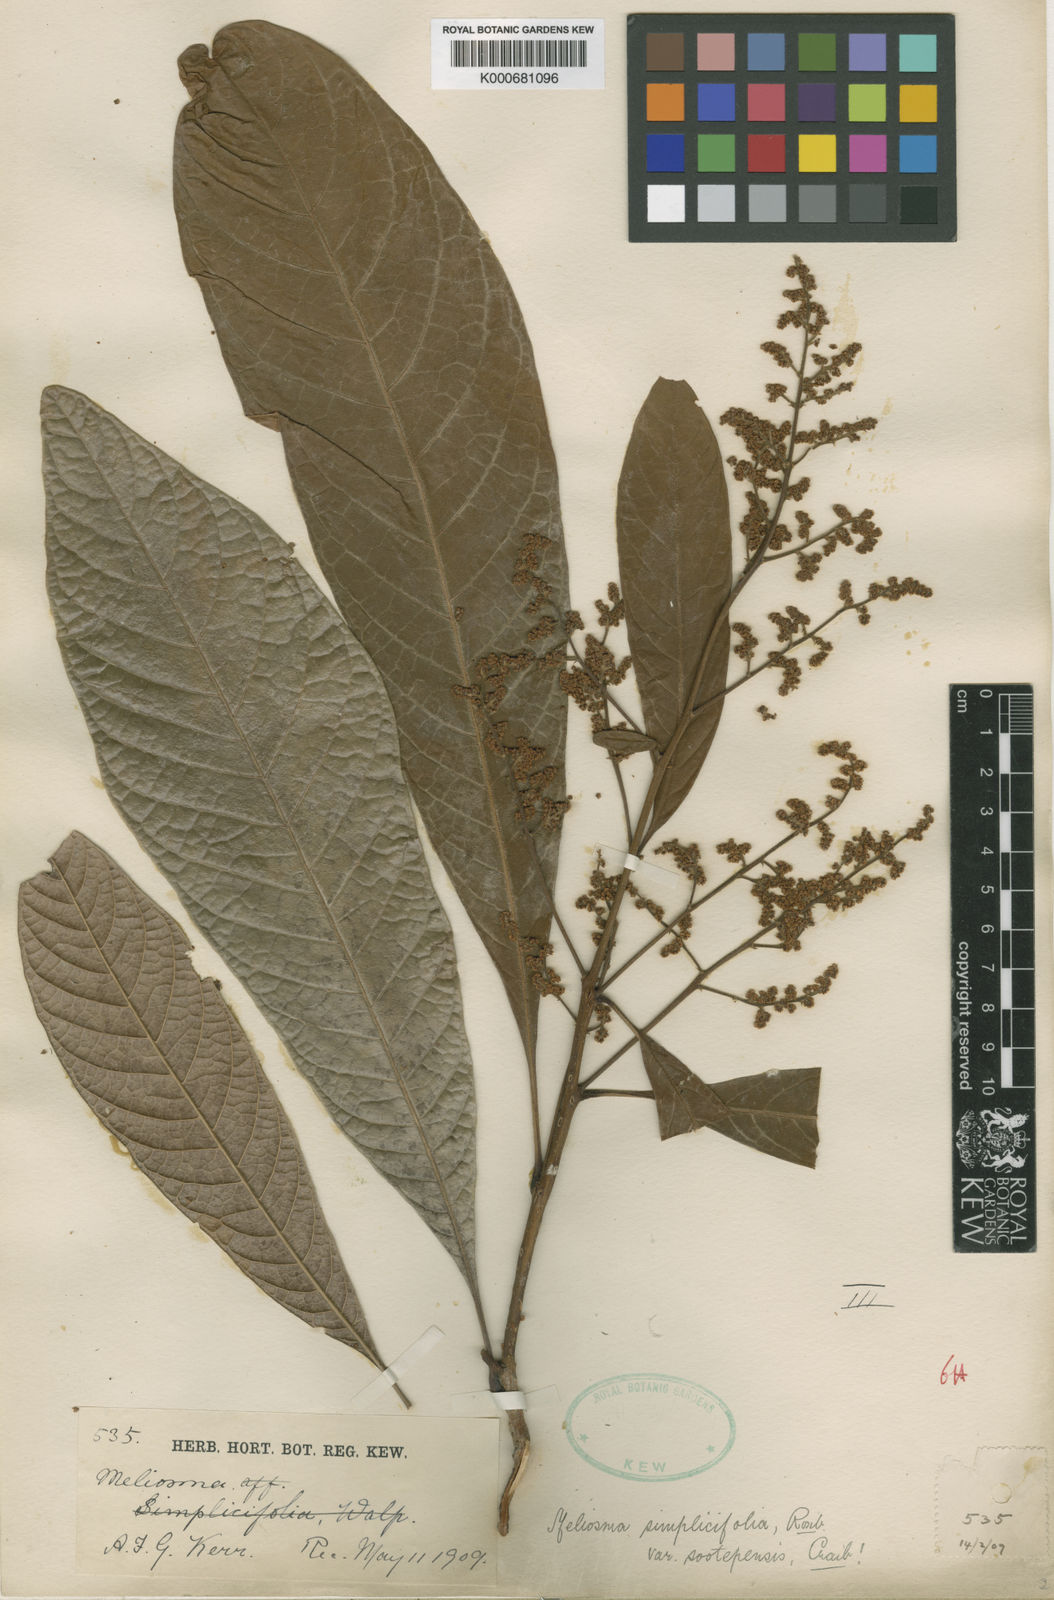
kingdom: Plantae
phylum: Tracheophyta
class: Magnoliopsida
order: Proteales
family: Sabiaceae
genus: Meliosma
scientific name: Meliosma fordii
